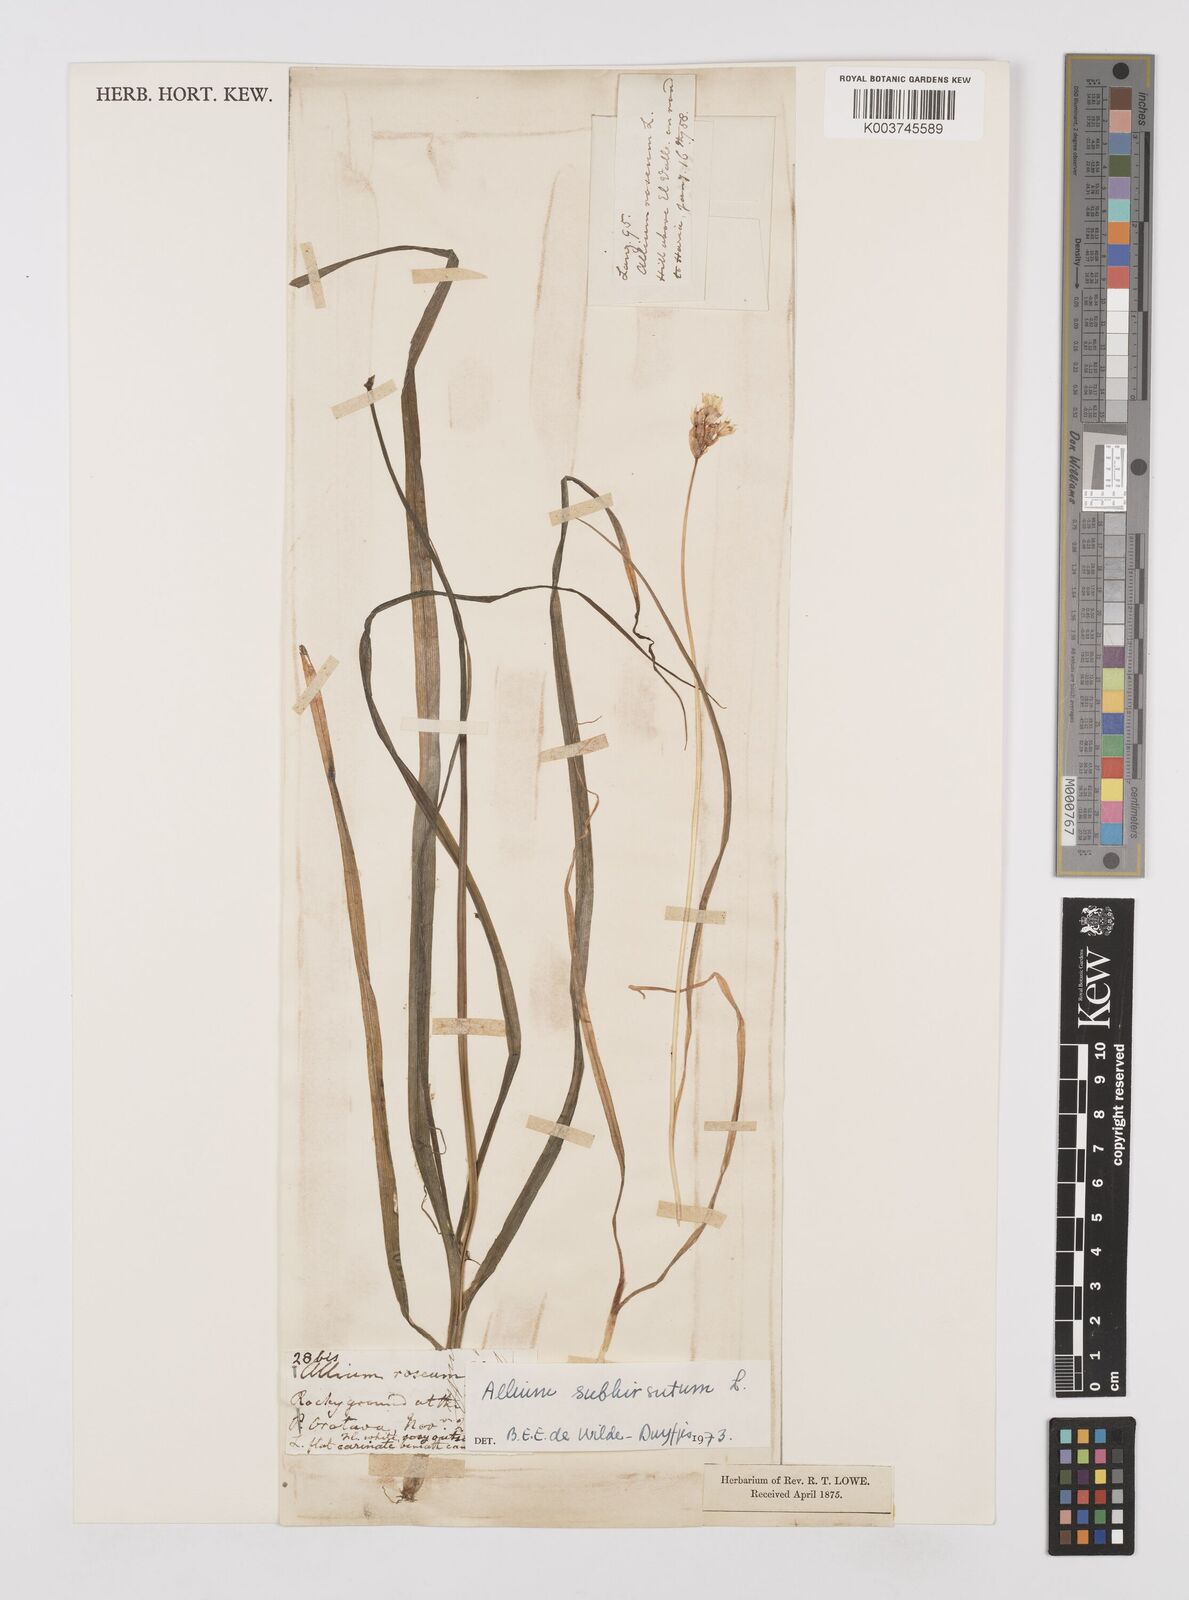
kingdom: Plantae
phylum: Tracheophyta
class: Liliopsida
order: Asparagales
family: Amaryllidaceae
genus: Allium
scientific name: Allium subhirsutum
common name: Hairy garlic
